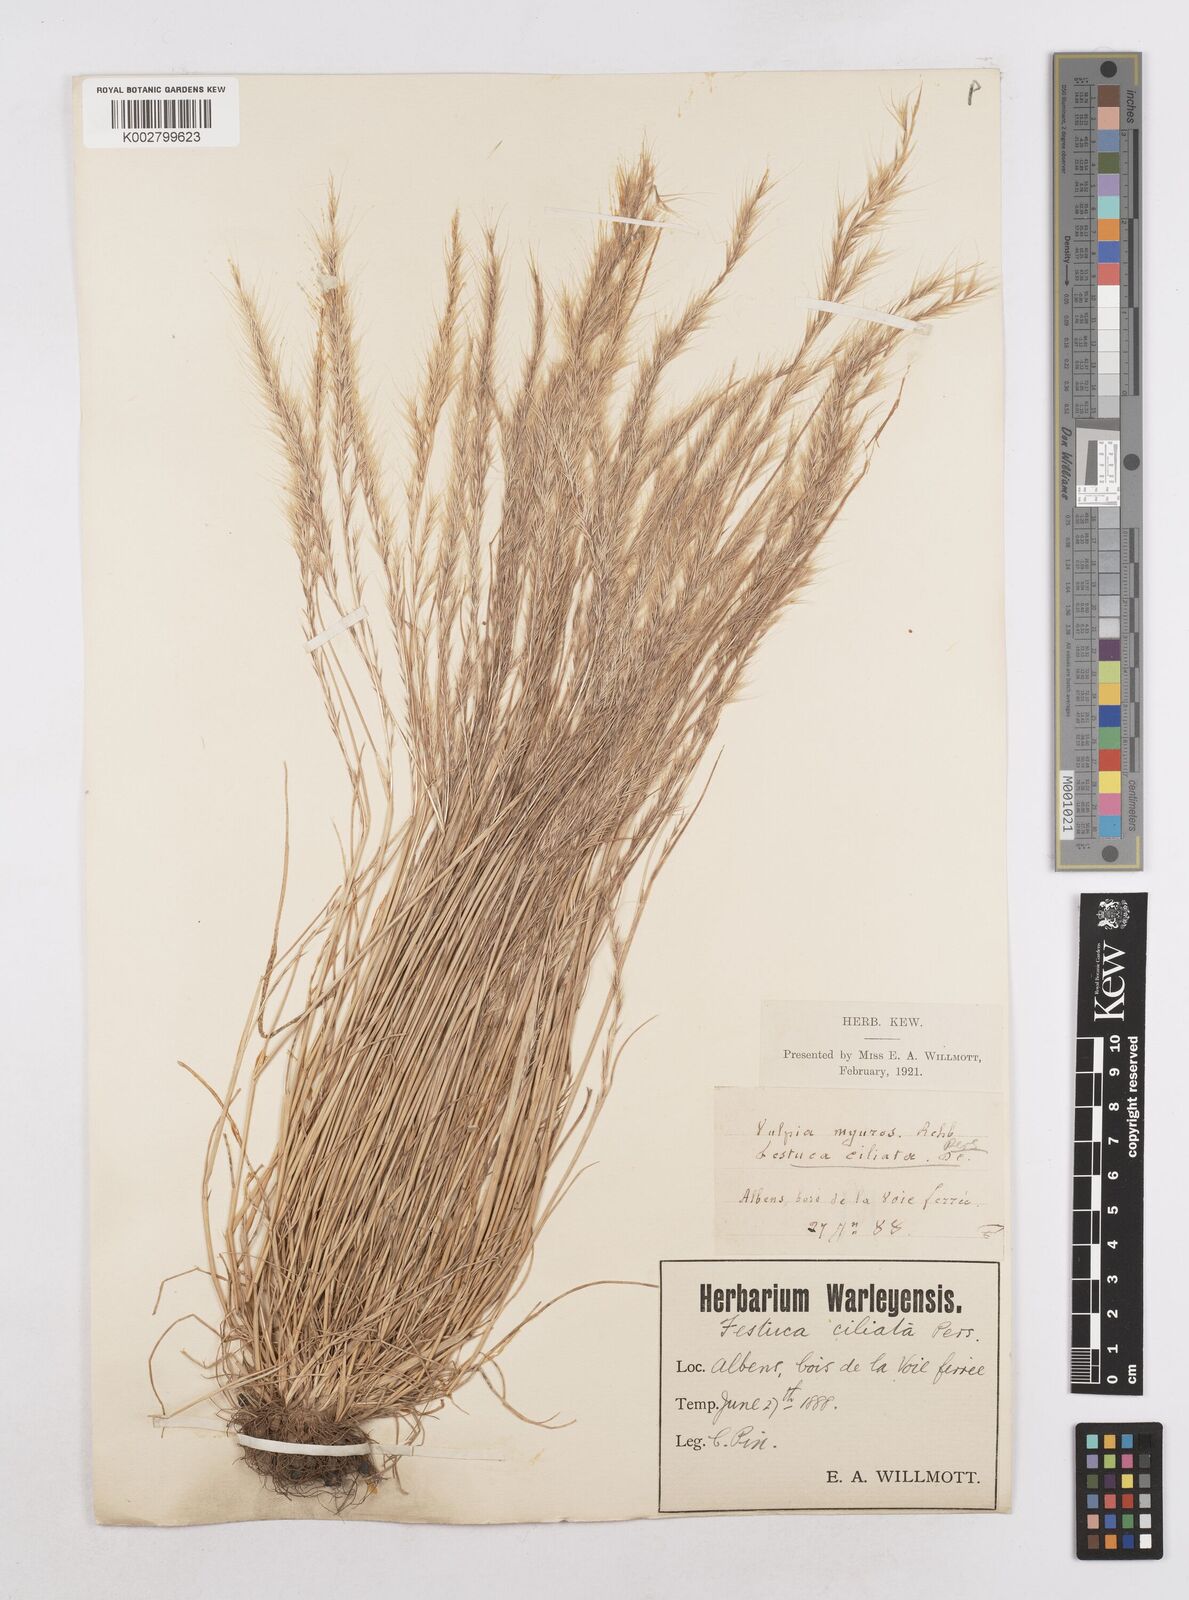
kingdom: Plantae
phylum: Tracheophyta
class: Liliopsida
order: Poales
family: Poaceae
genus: Festuca
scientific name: Festuca
